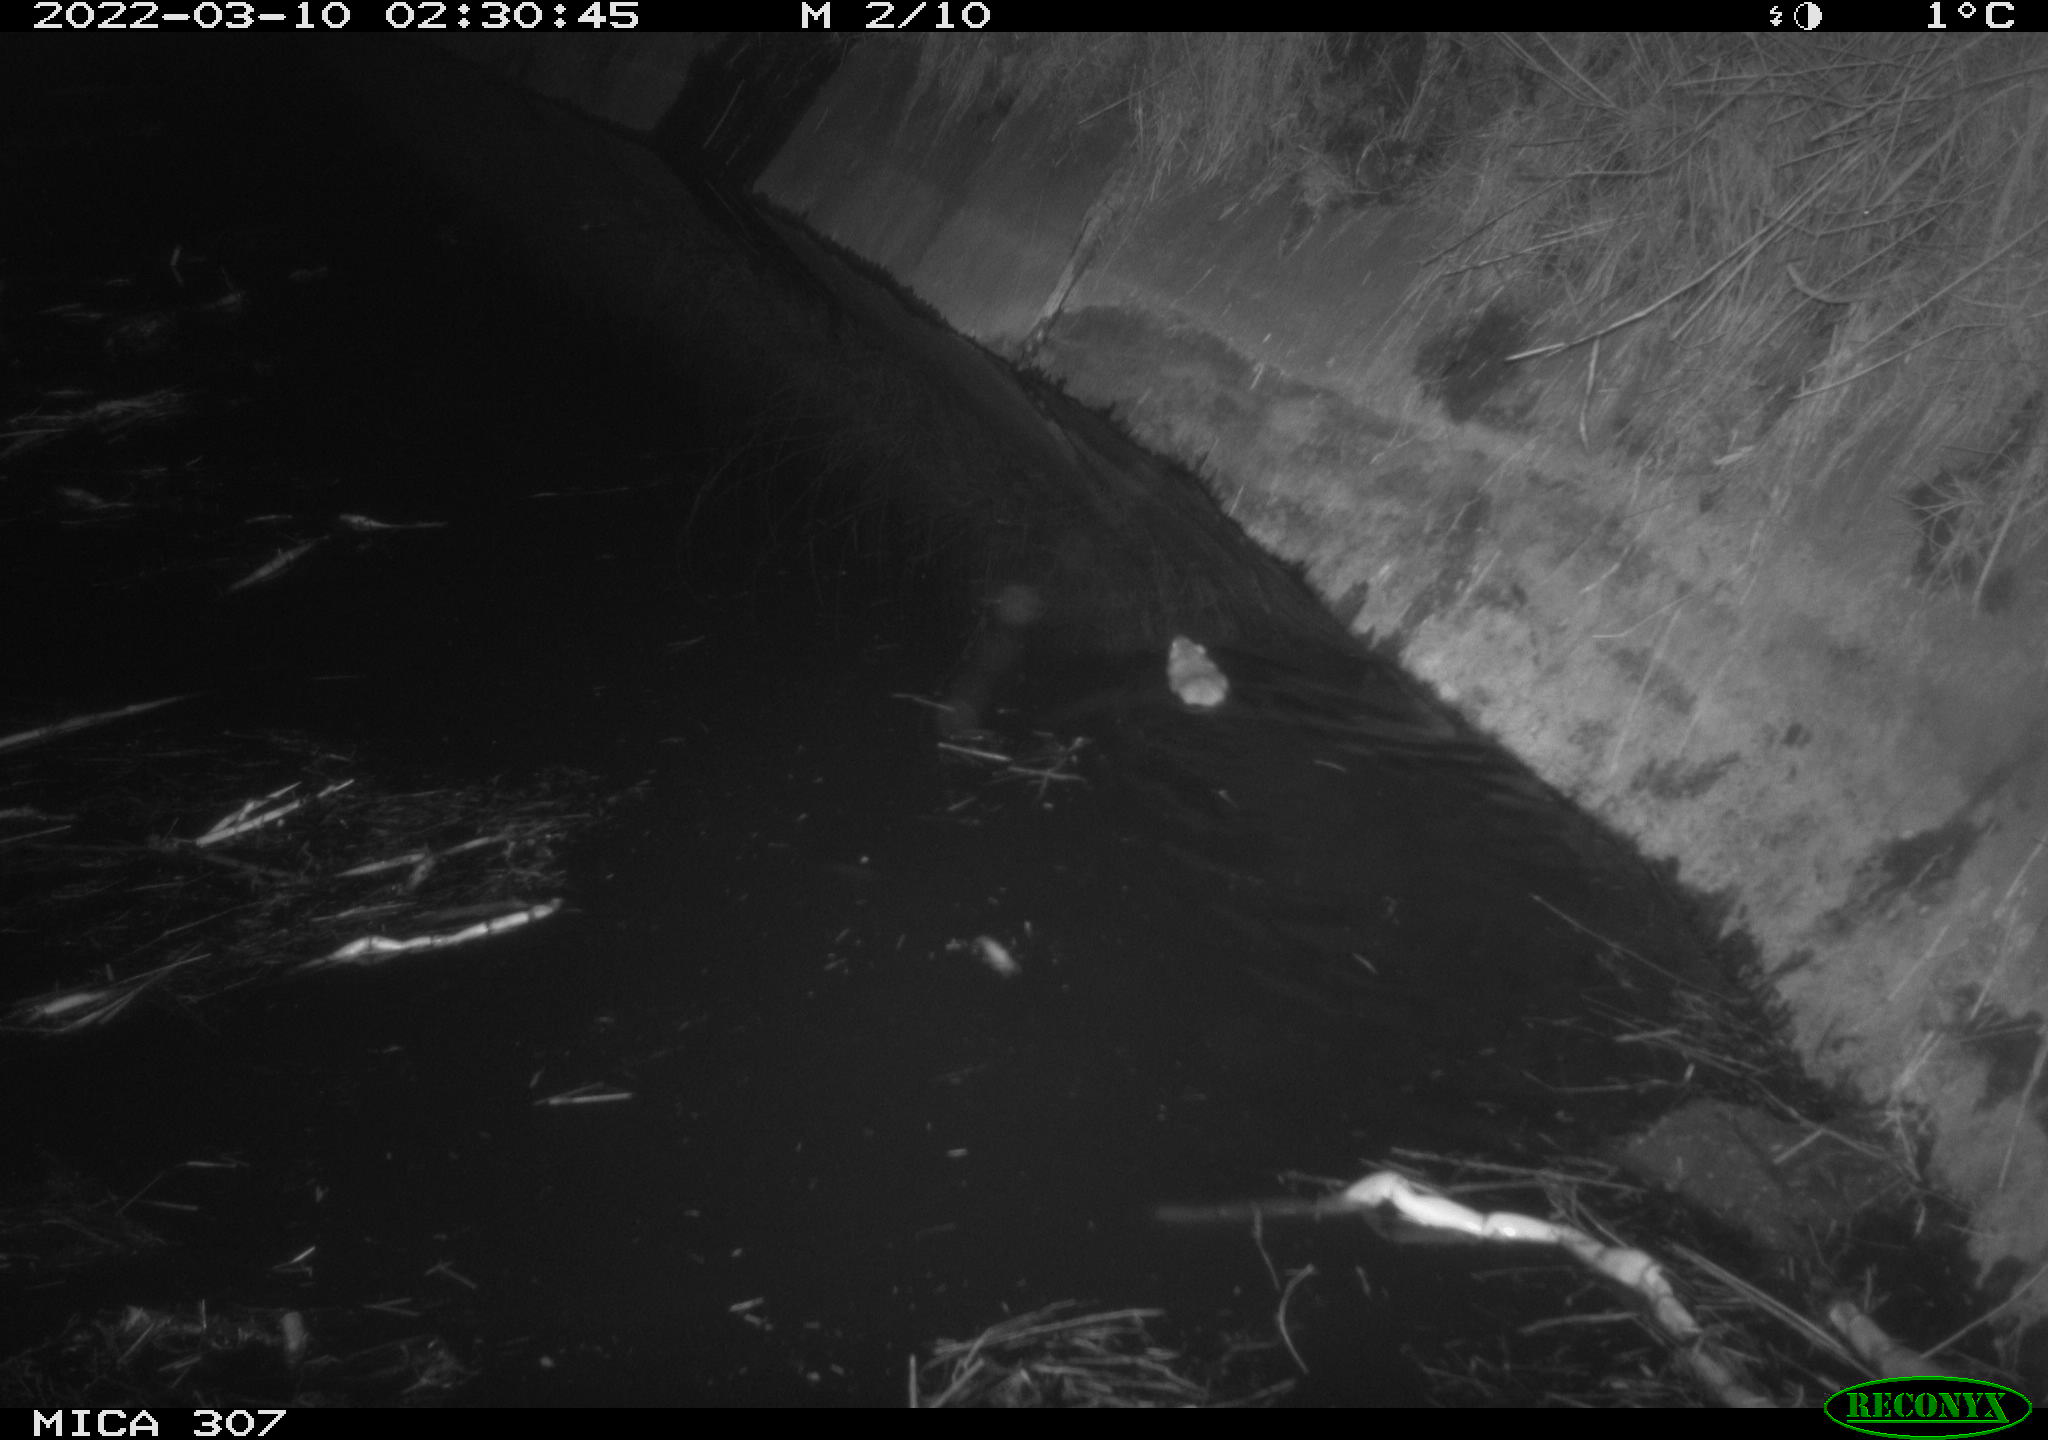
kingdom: Animalia
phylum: Chordata
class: Mammalia
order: Rodentia
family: Muridae
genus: Rattus
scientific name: Rattus norvegicus
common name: Brown rat
